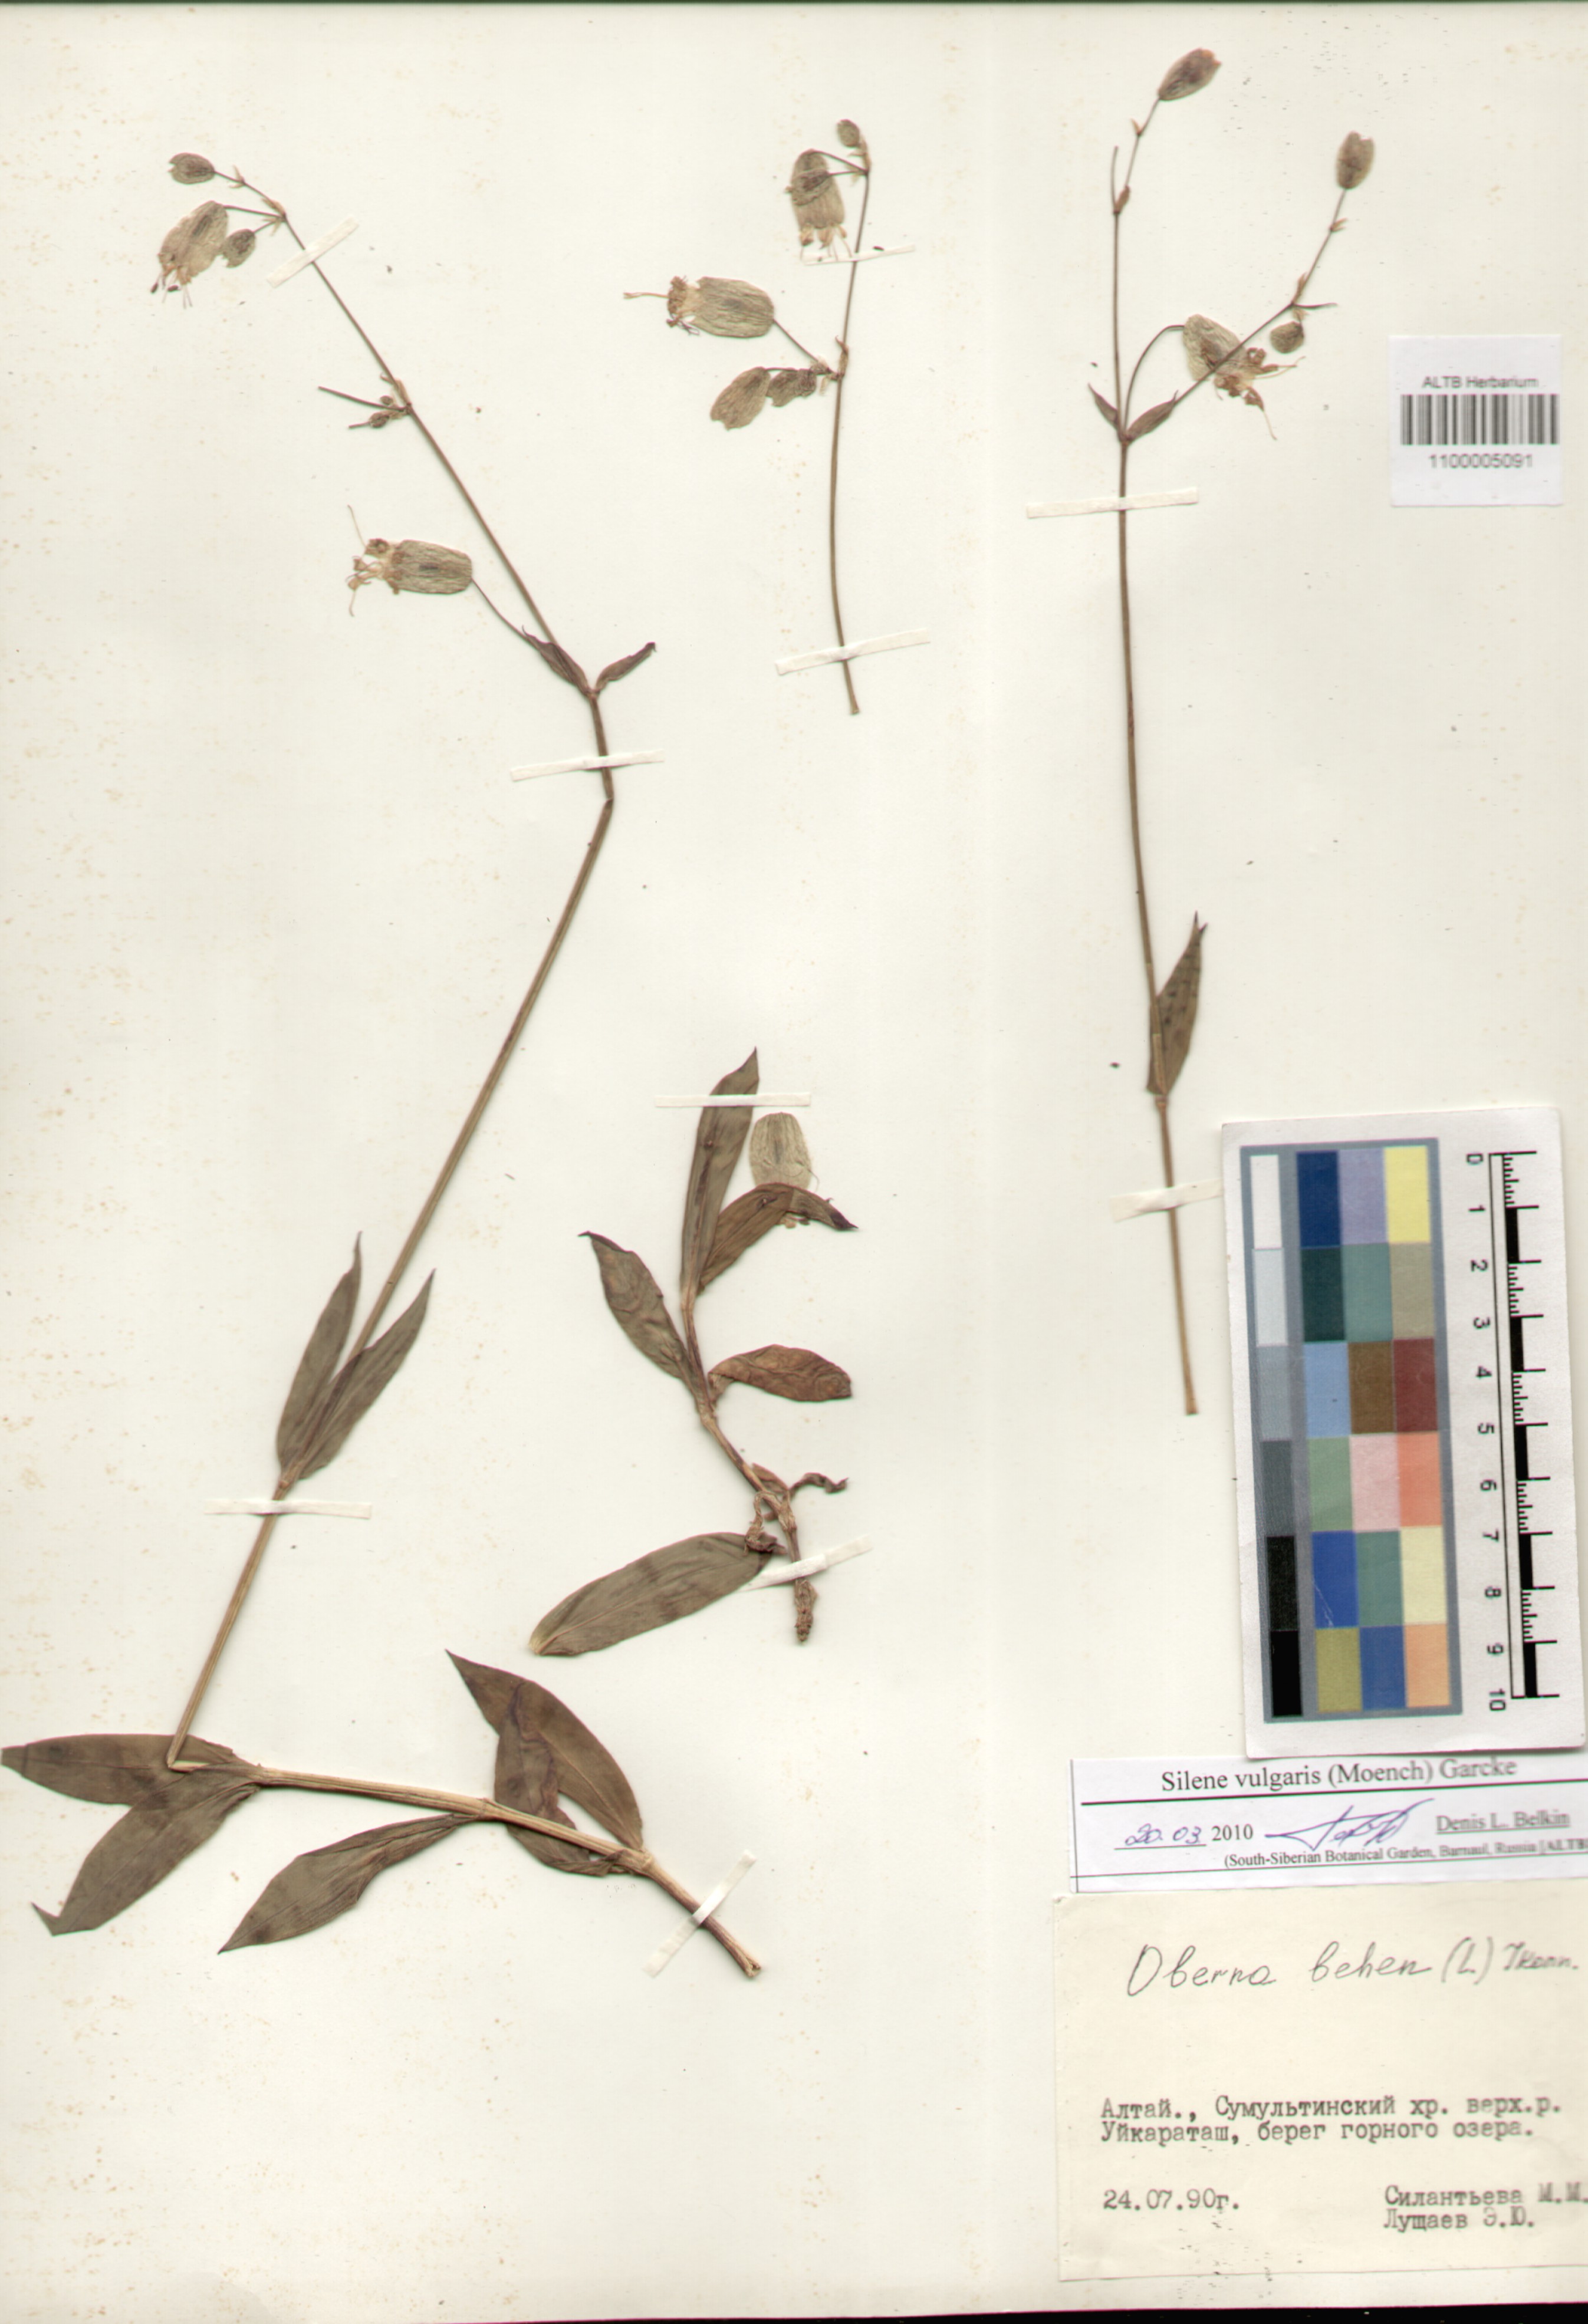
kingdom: Plantae
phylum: Tracheophyta
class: Magnoliopsida
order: Caryophyllales
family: Caryophyllaceae
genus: Silene
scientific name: Silene vulgaris
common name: Bladder campion
